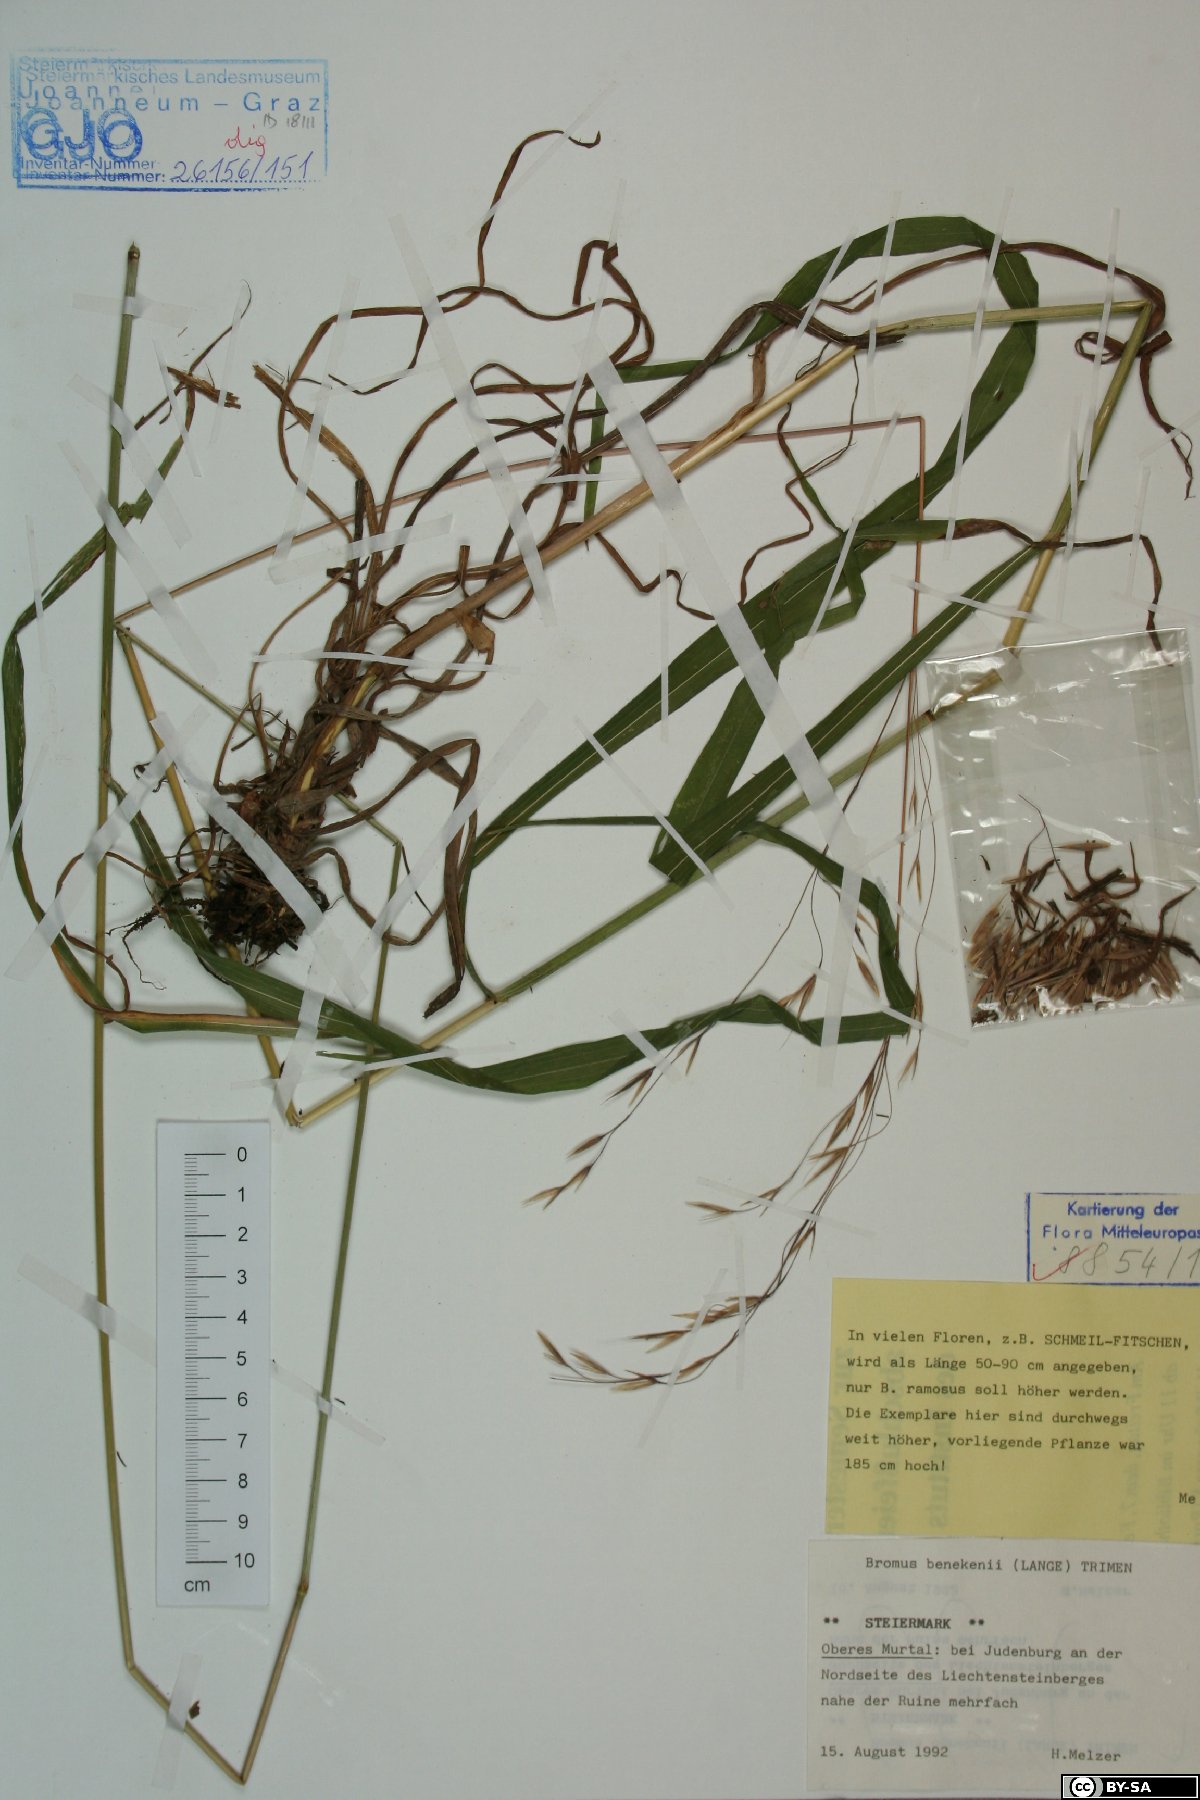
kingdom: Plantae
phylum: Tracheophyta
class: Liliopsida
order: Poales
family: Poaceae
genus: Bromus
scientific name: Bromus benekenii
